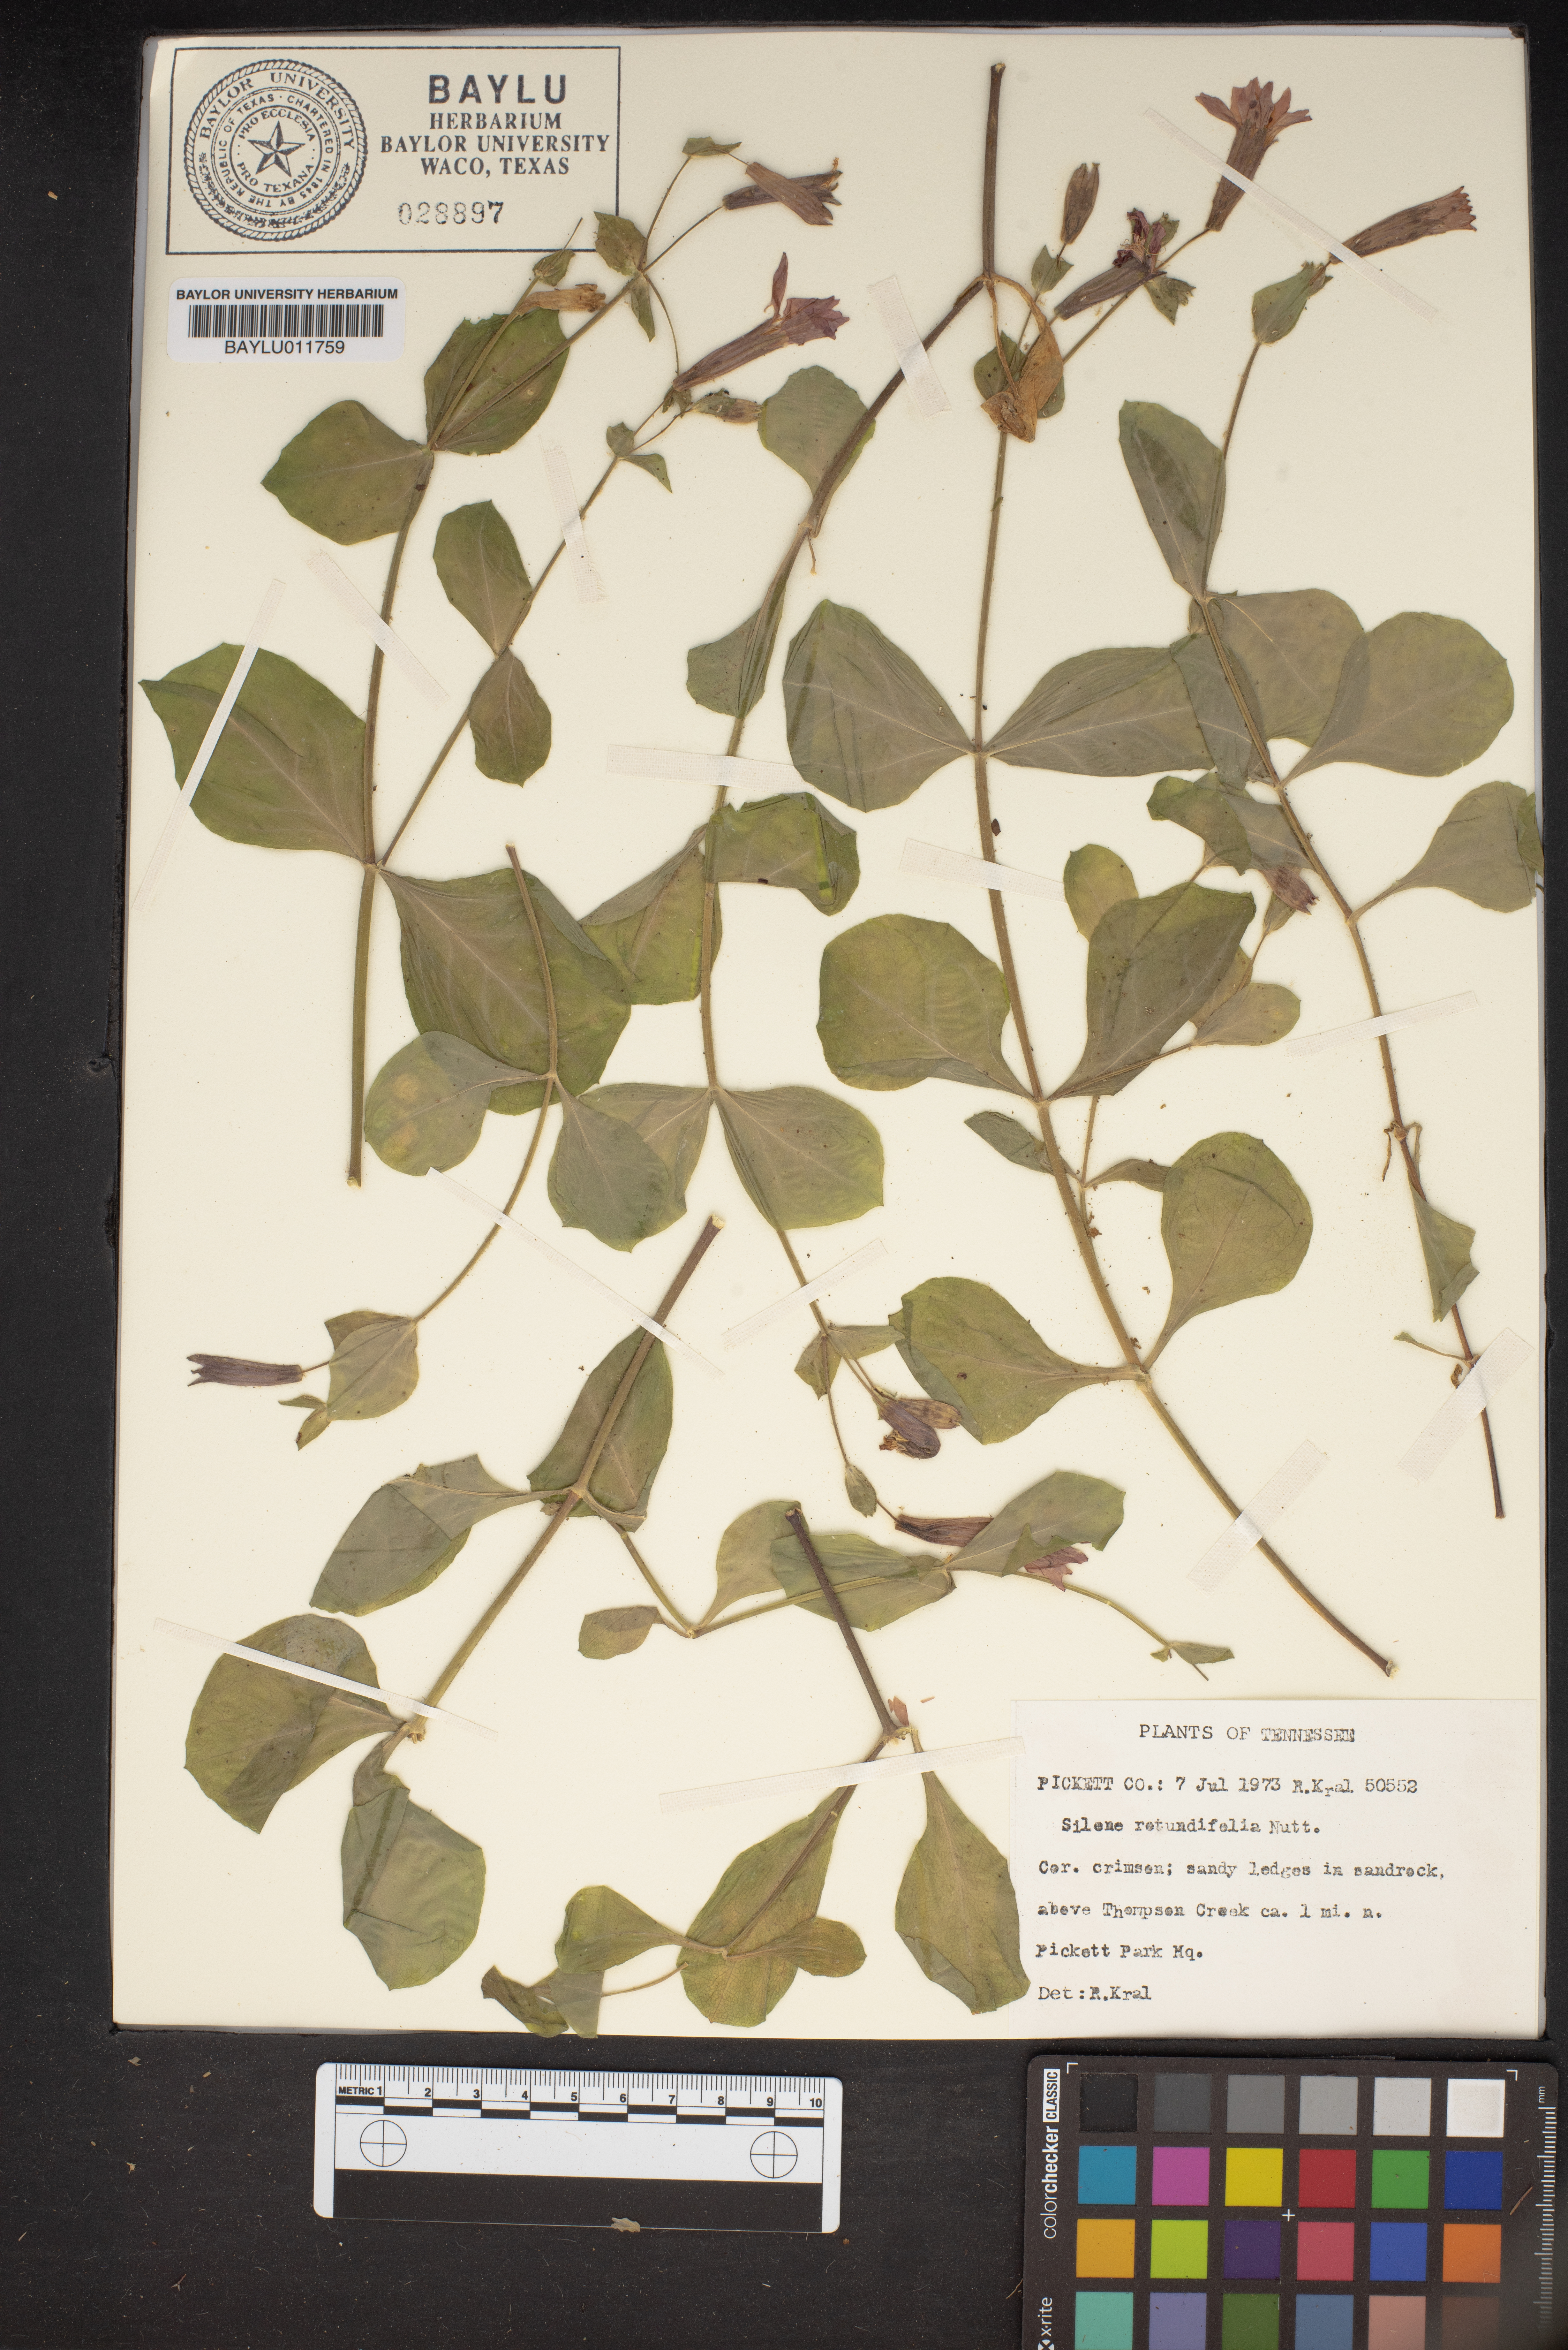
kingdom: Plantae
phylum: Tracheophyta
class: Magnoliopsida
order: Caryophyllales
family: Caryophyllaceae
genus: Silene
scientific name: Silene rotundifolia
